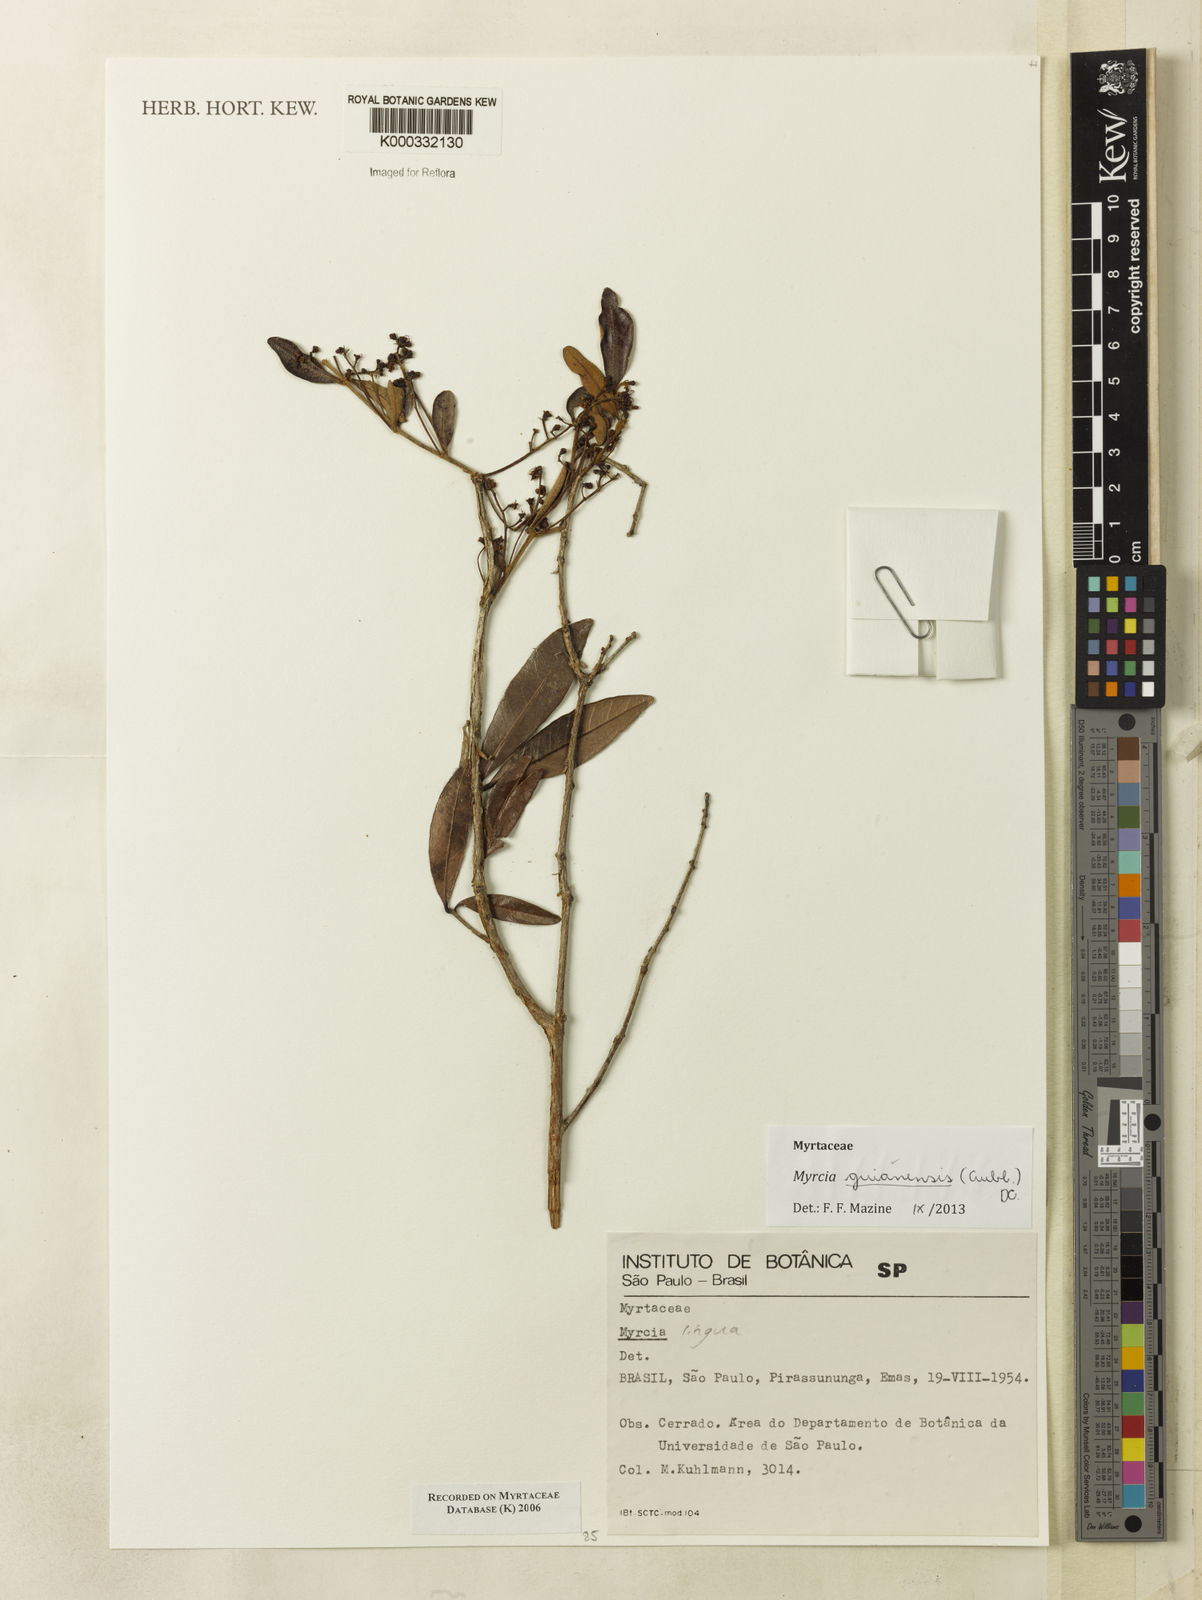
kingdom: Plantae
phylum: Tracheophyta
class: Magnoliopsida
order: Myrtales
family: Myrtaceae
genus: Myrcia
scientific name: Myrcia
